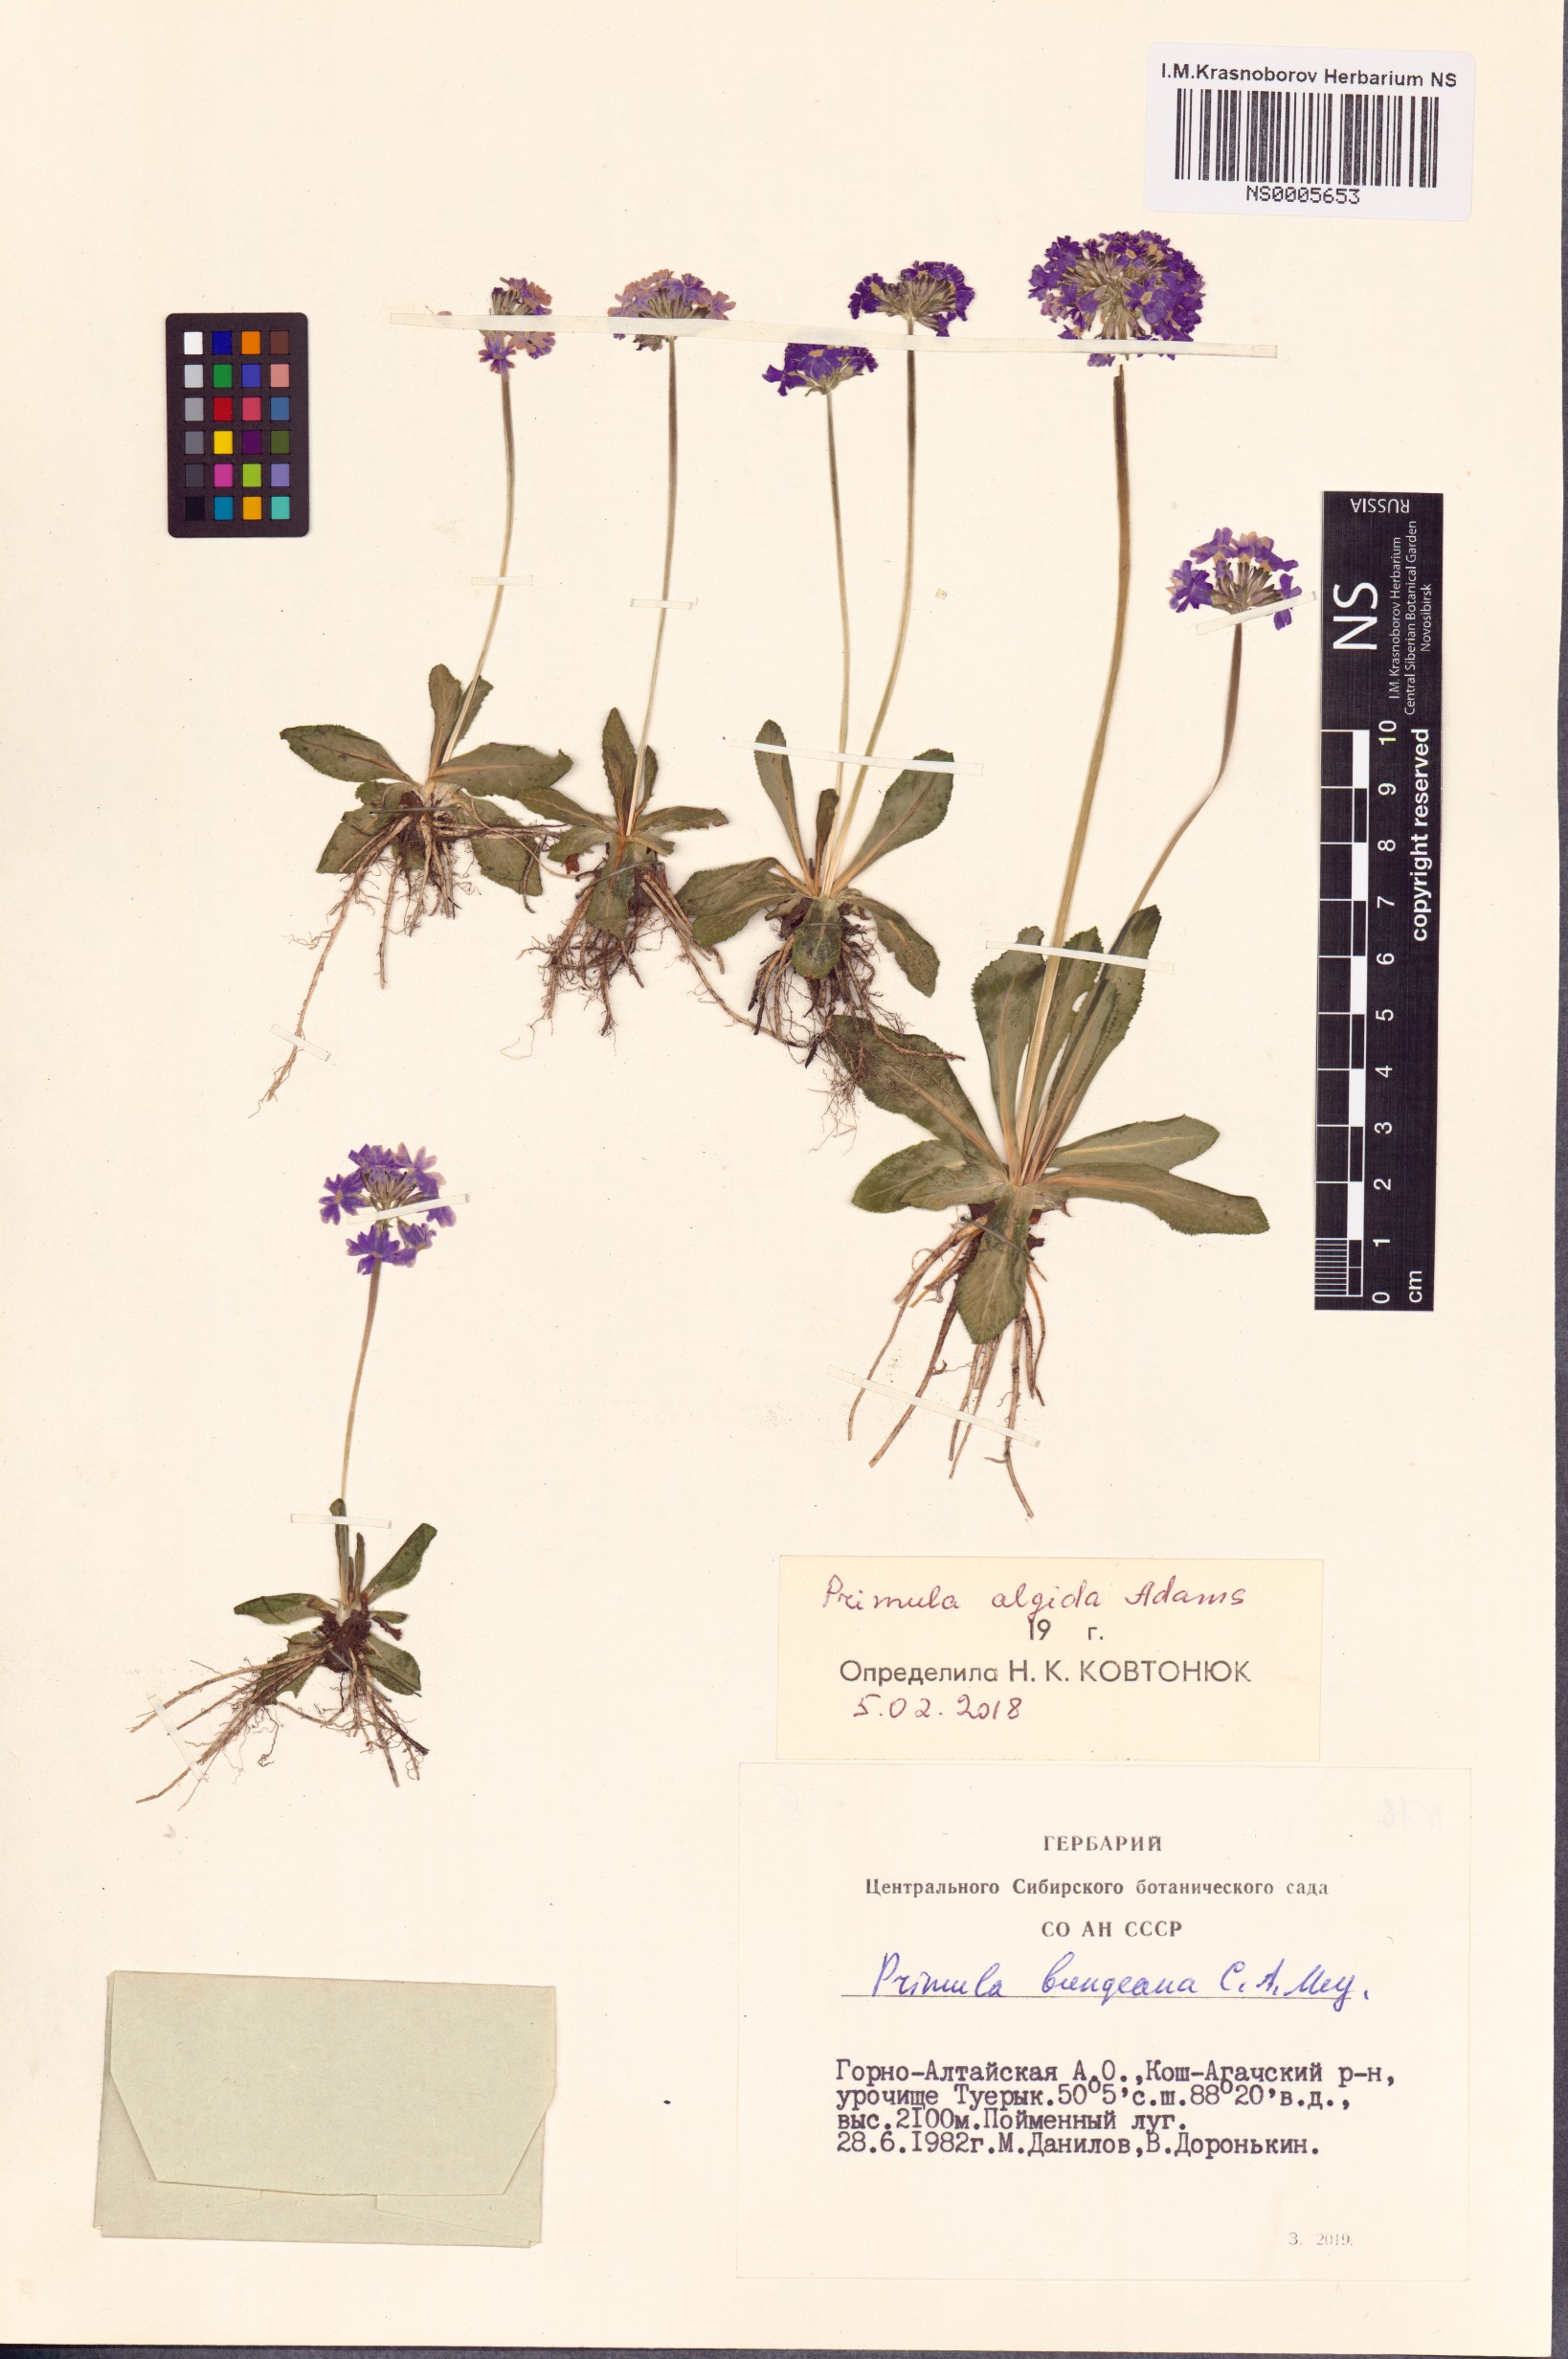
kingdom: Plantae
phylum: Tracheophyta
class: Magnoliopsida
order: Ericales
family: Primulaceae
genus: Primula
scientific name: Primula algida
